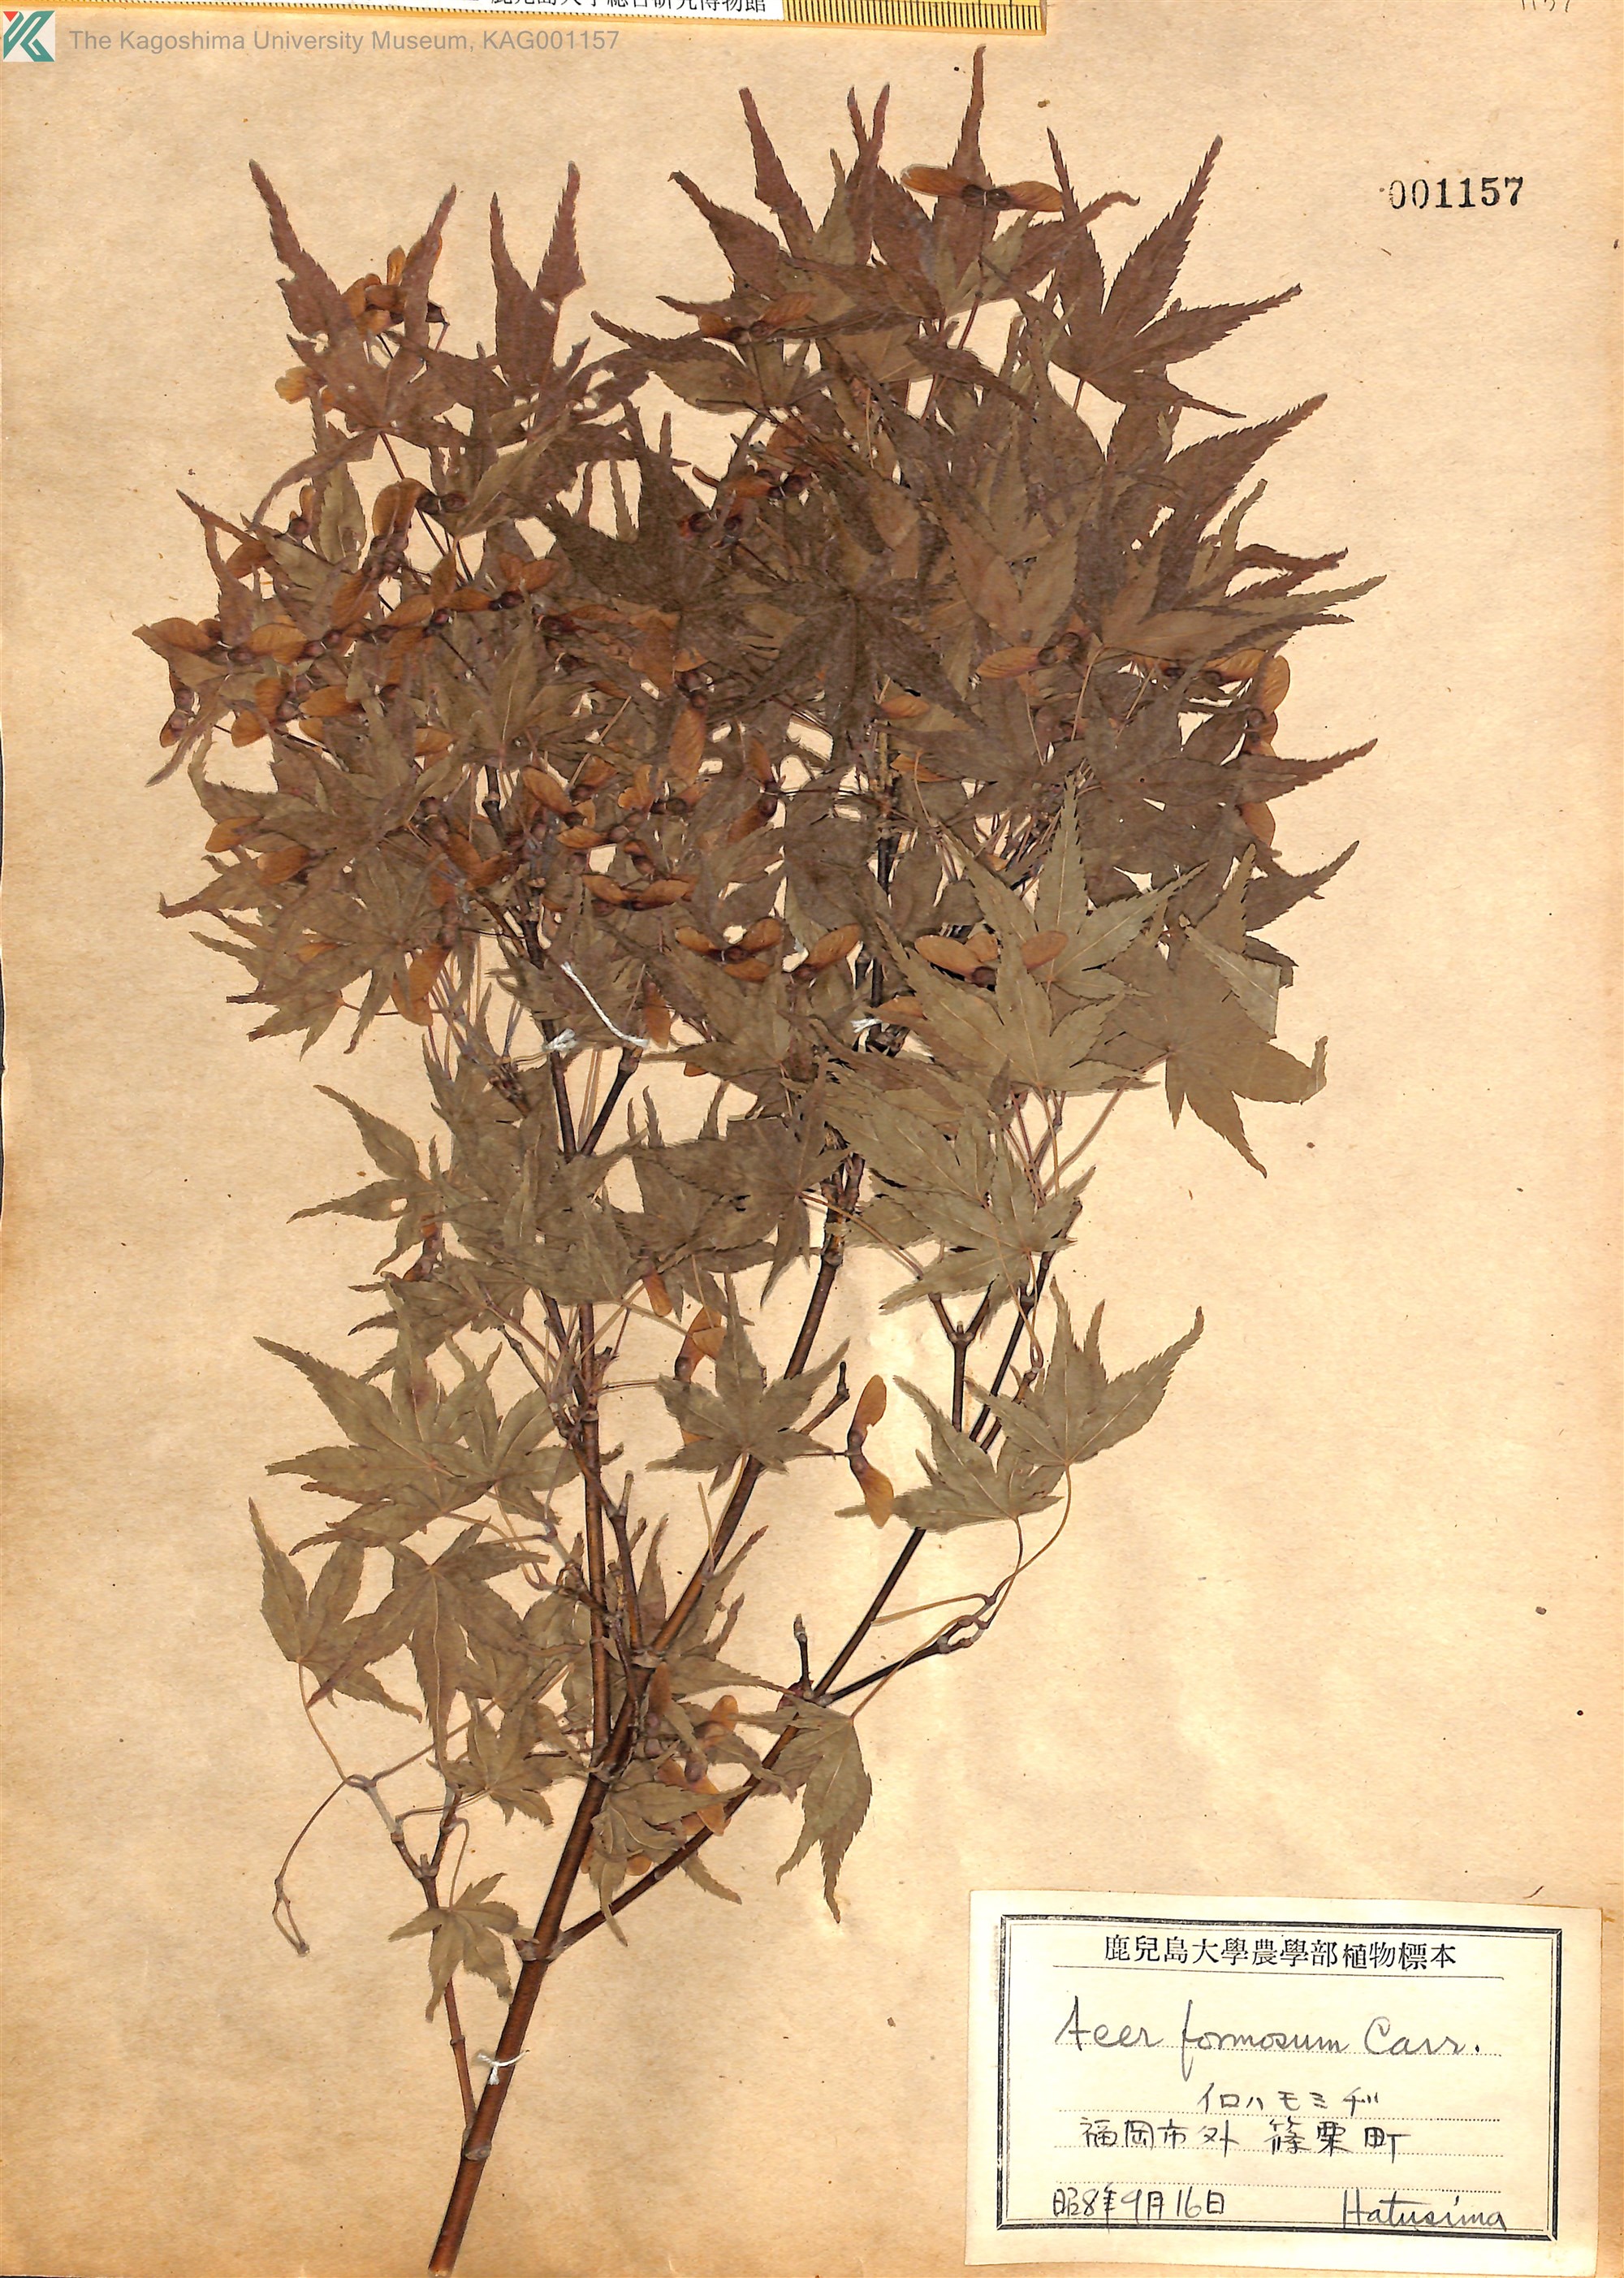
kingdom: Plantae
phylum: Tracheophyta
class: Magnoliopsida
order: Sapindales
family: Sapindaceae
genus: Acer
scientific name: Acer palmatum
